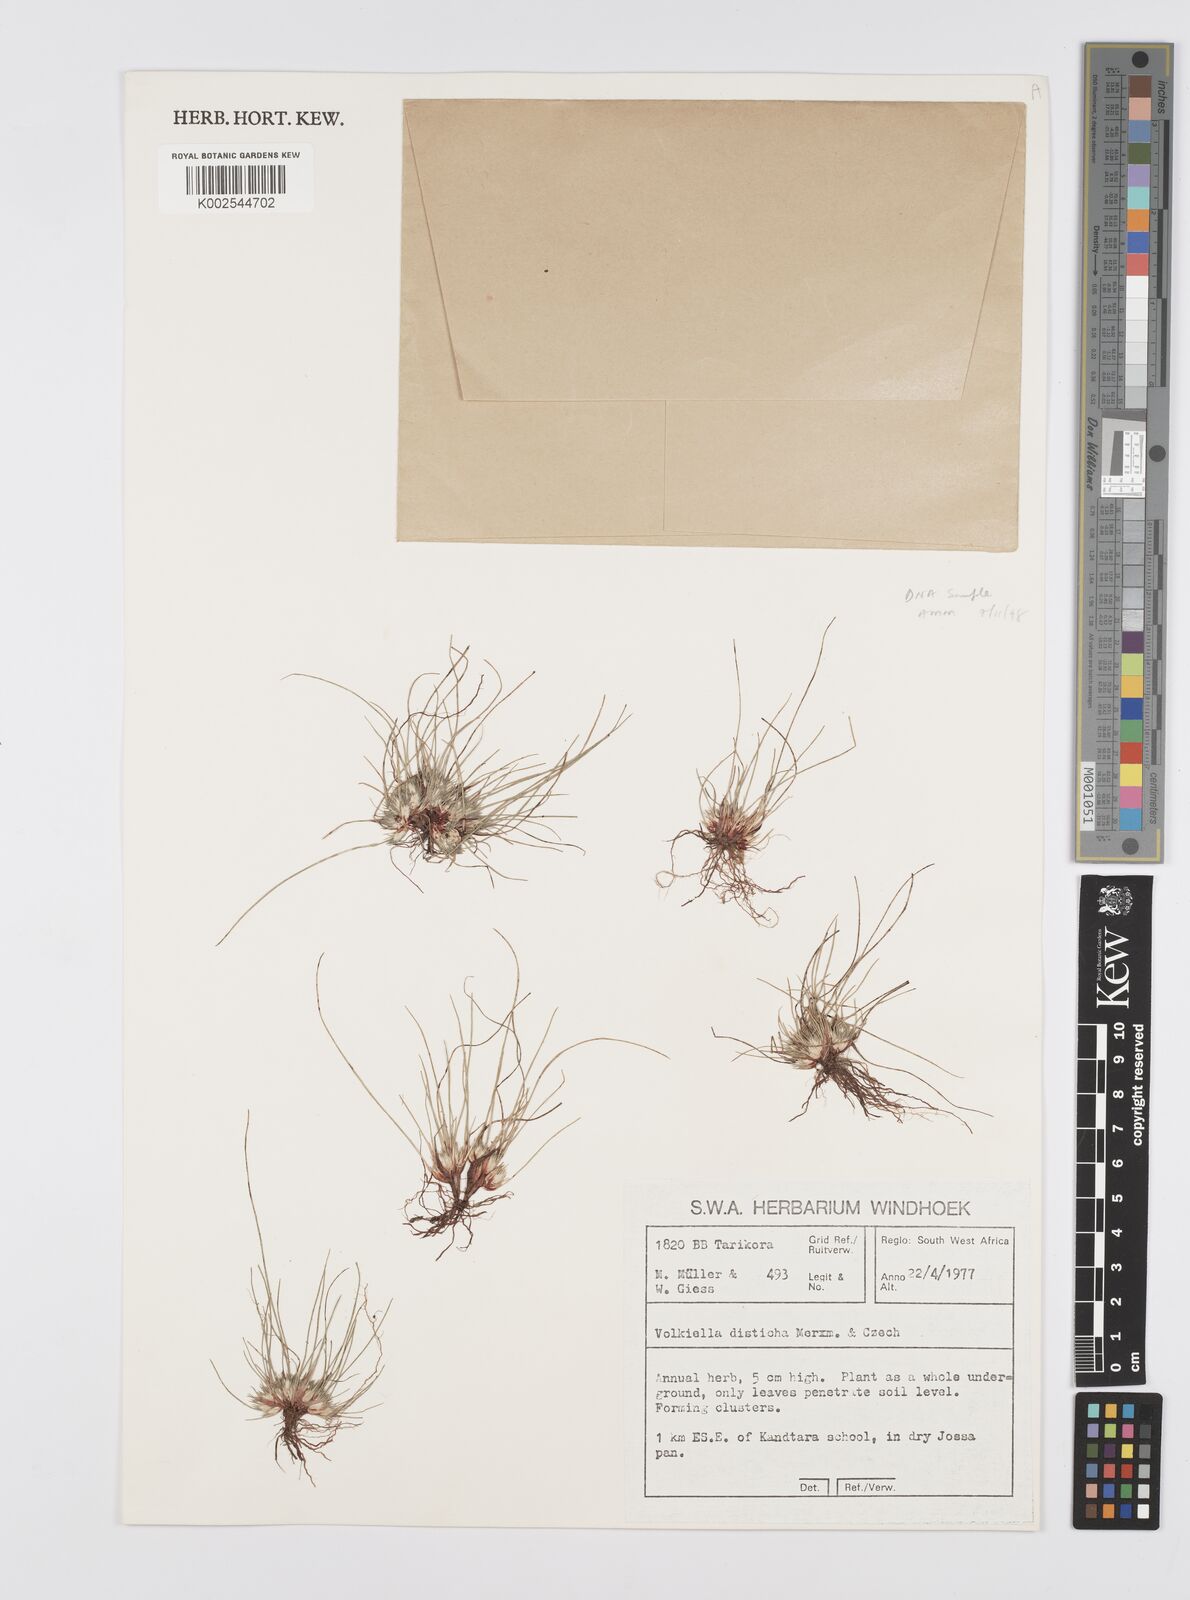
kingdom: Plantae
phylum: Tracheophyta
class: Liliopsida
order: Poales
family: Cyperaceae
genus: Cyperus
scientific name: Cyperus distichus
